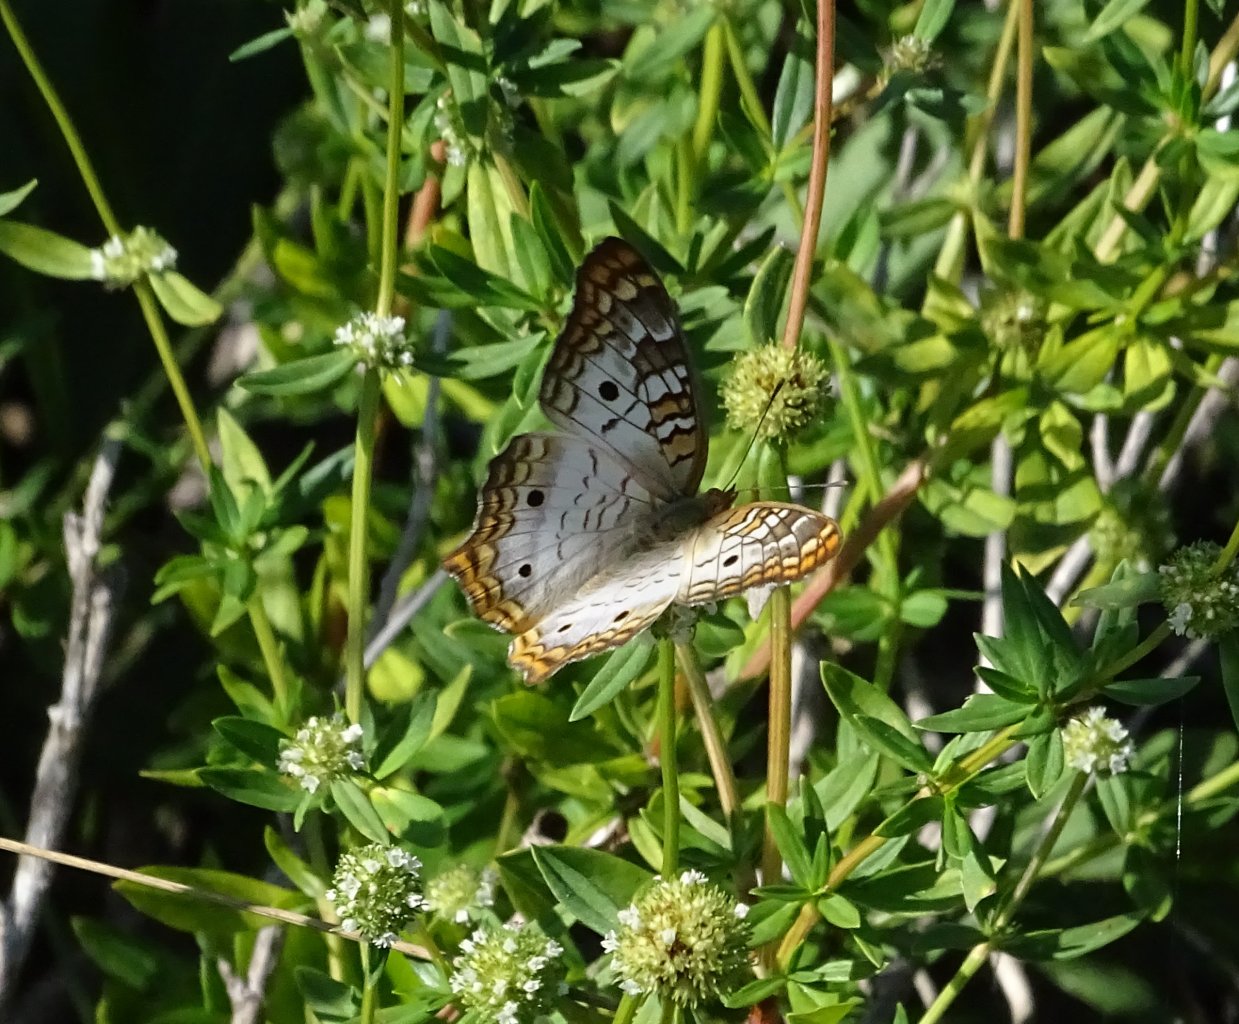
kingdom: Animalia
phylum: Arthropoda
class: Insecta
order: Lepidoptera
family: Nymphalidae
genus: Anartia
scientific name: Anartia jatrophae
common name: White Peacock
